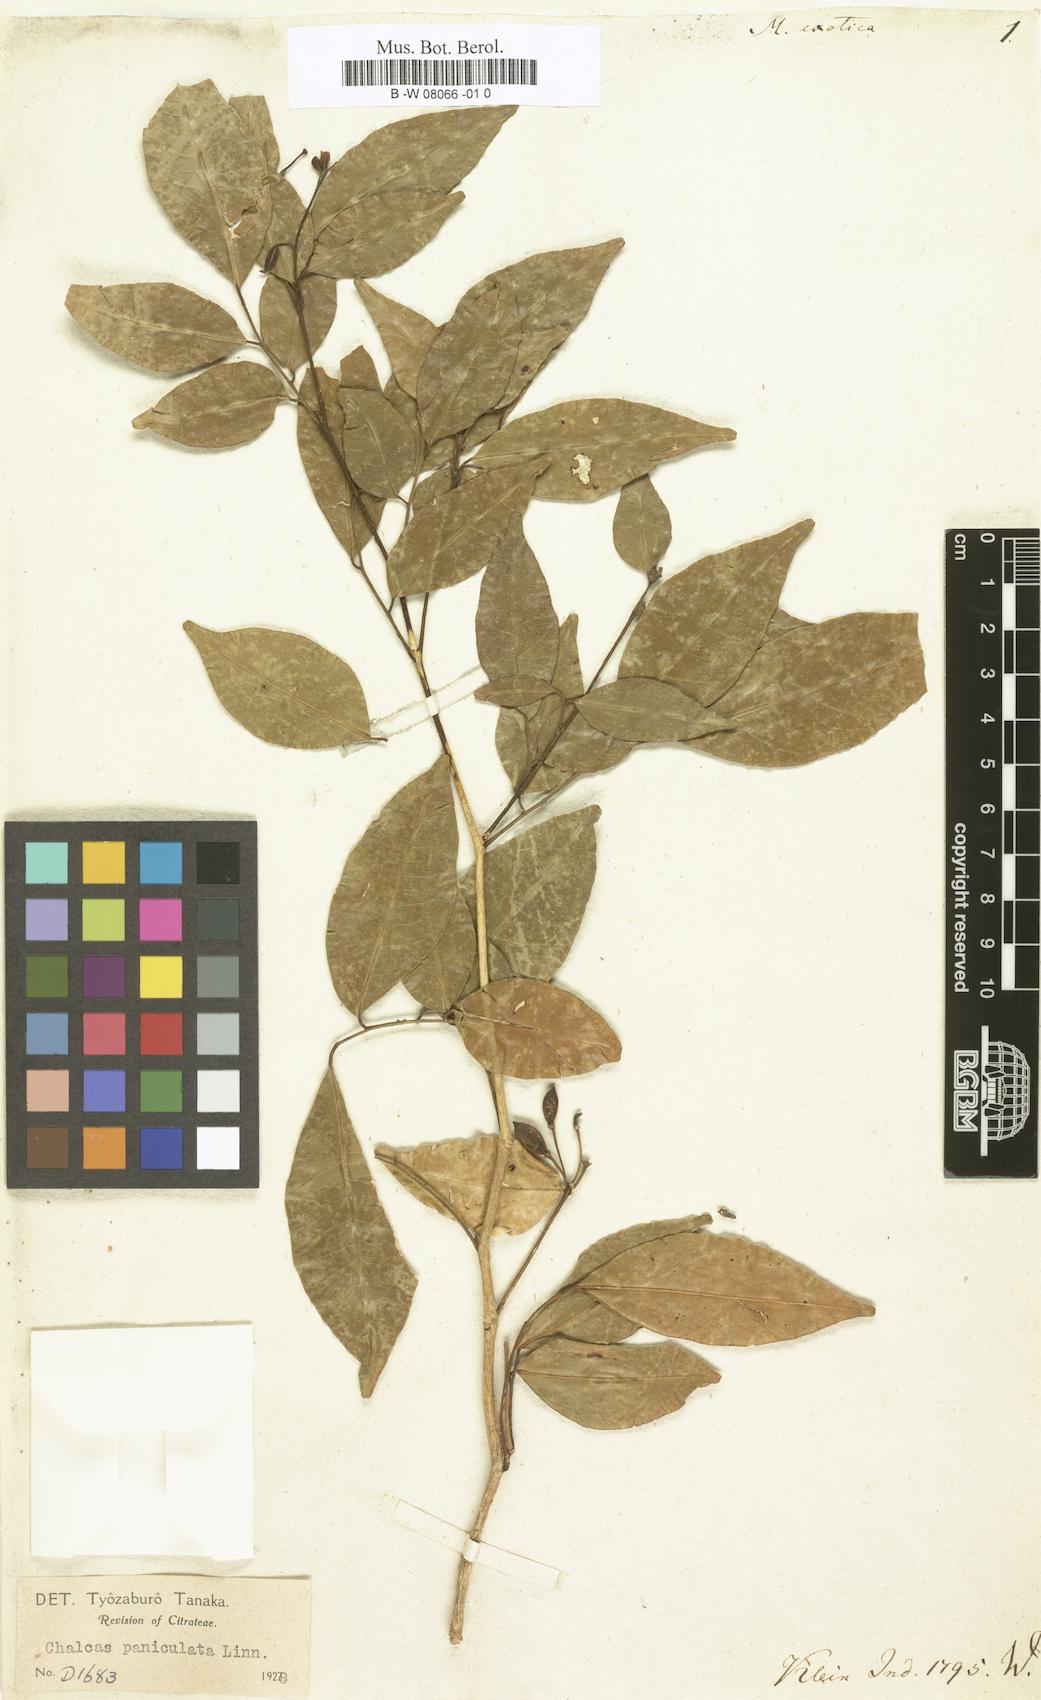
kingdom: Plantae
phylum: Tracheophyta
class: Magnoliopsida
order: Sapindales
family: Rutaceae
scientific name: Rutaceae
